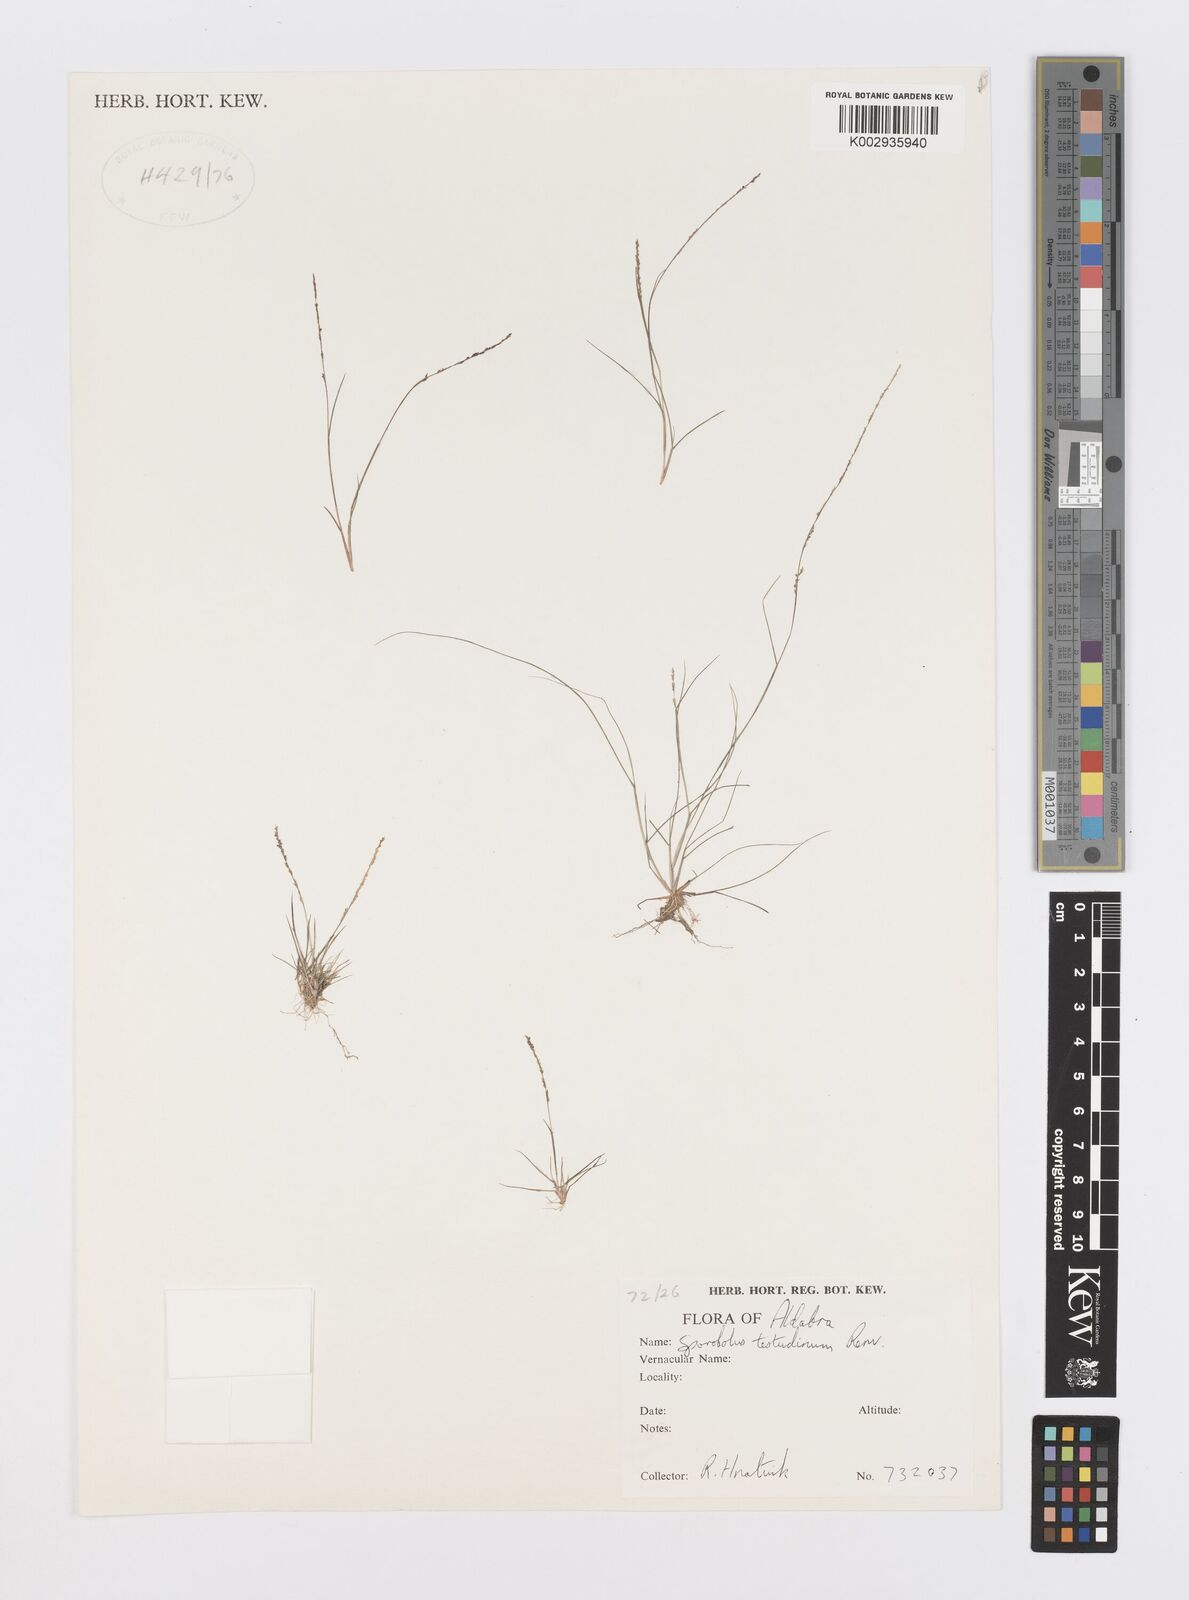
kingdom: Plantae
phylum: Tracheophyta
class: Liliopsida
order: Poales
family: Poaceae
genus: Sporobolus
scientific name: Sporobolus testudinum
